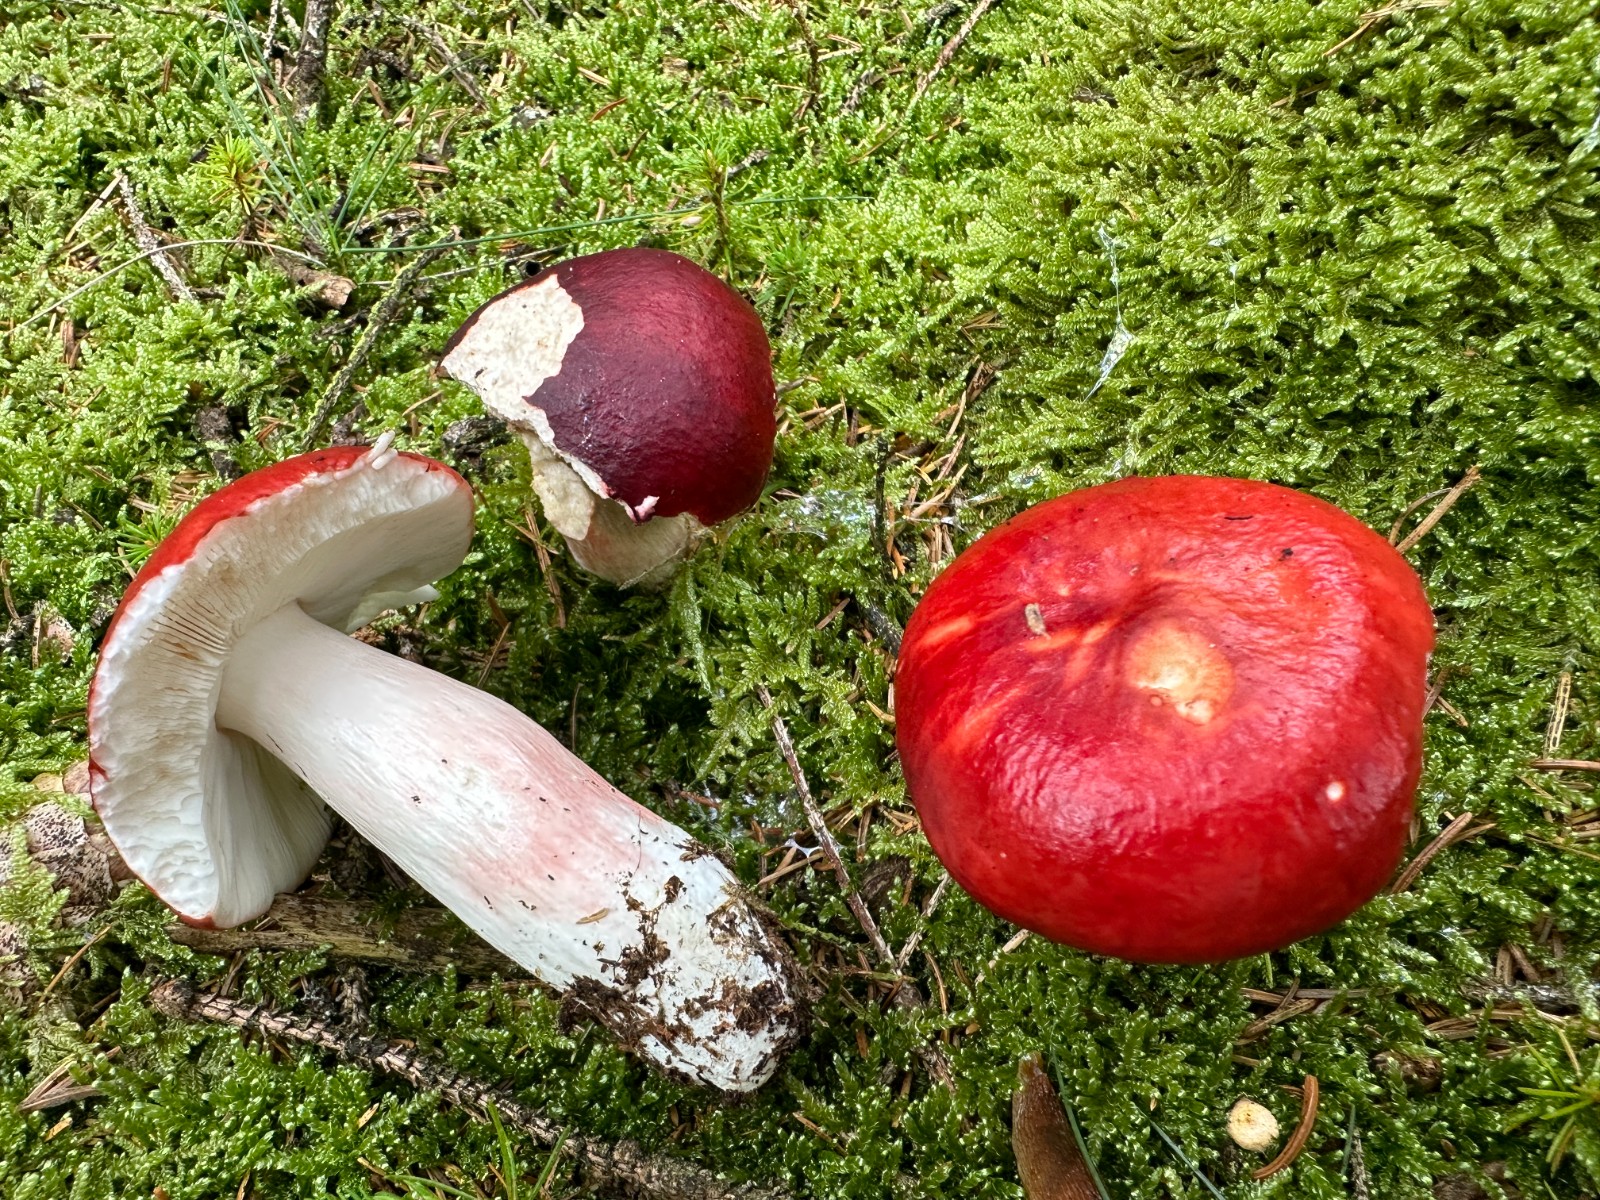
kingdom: Fungi
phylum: Basidiomycota
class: Agaricomycetes
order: Russulales
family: Russulaceae
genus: Russula
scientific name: Russula paludosa
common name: prægtig skørhat
